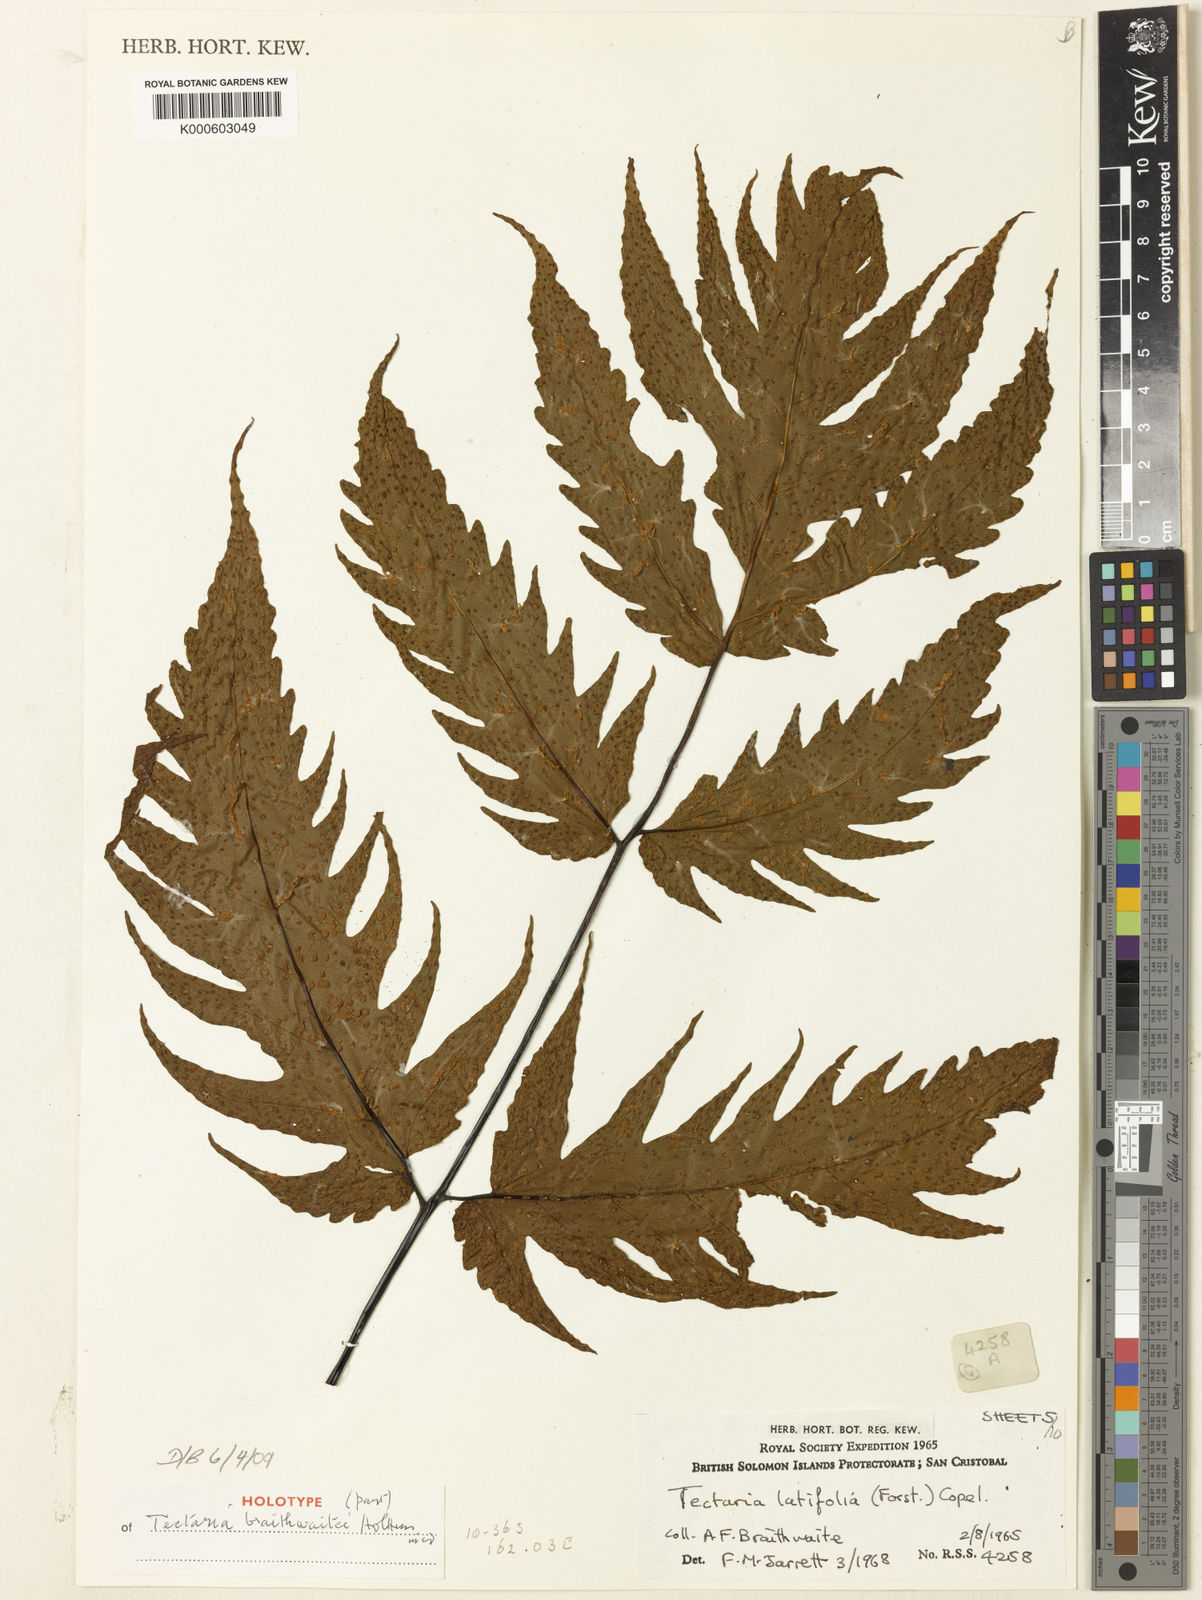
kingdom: Plantae
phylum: Tracheophyta
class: Polypodiopsida
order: Polypodiales
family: Tectariaceae
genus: Tectaria
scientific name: Tectaria
